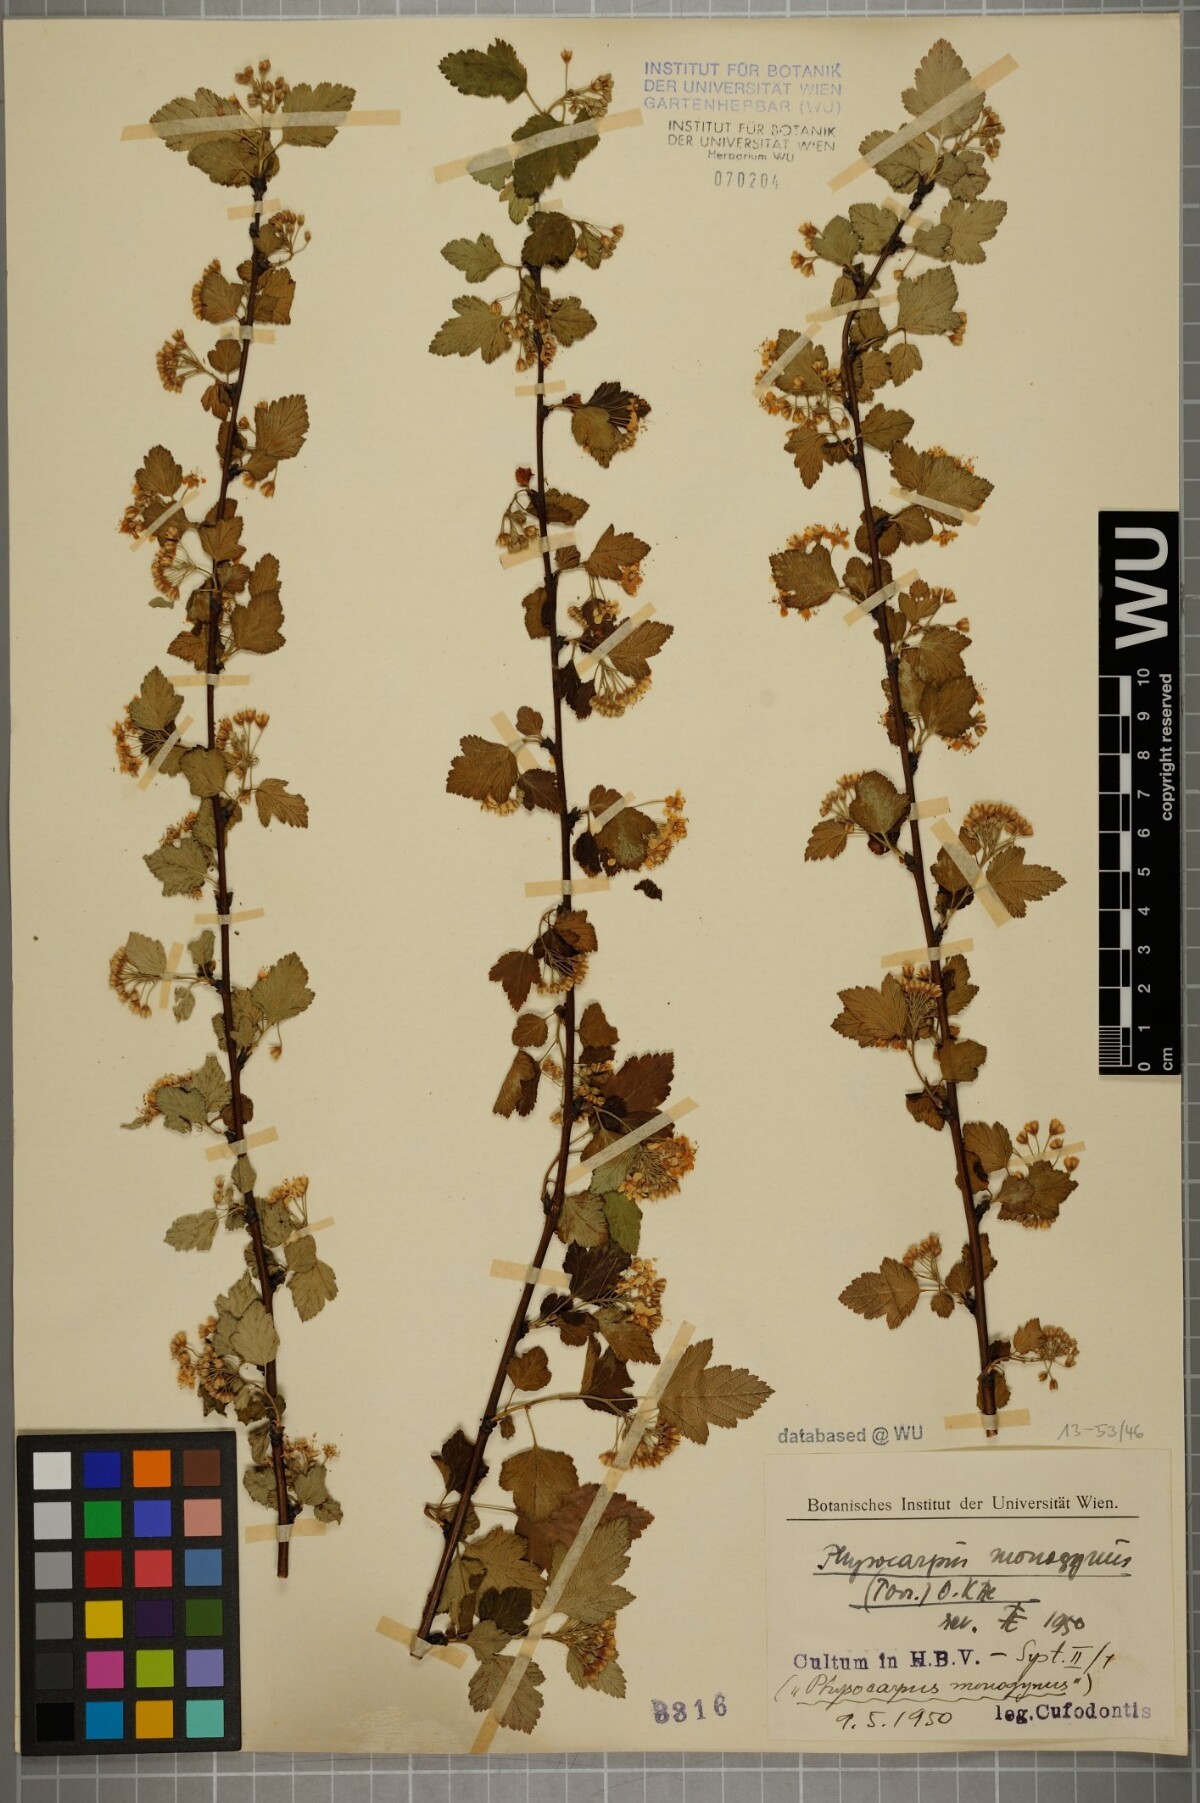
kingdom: Plantae
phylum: Tracheophyta
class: Magnoliopsida
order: Rosales
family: Rosaceae
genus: Physocarpus
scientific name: Physocarpus monogynus
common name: Mountain ninebark
